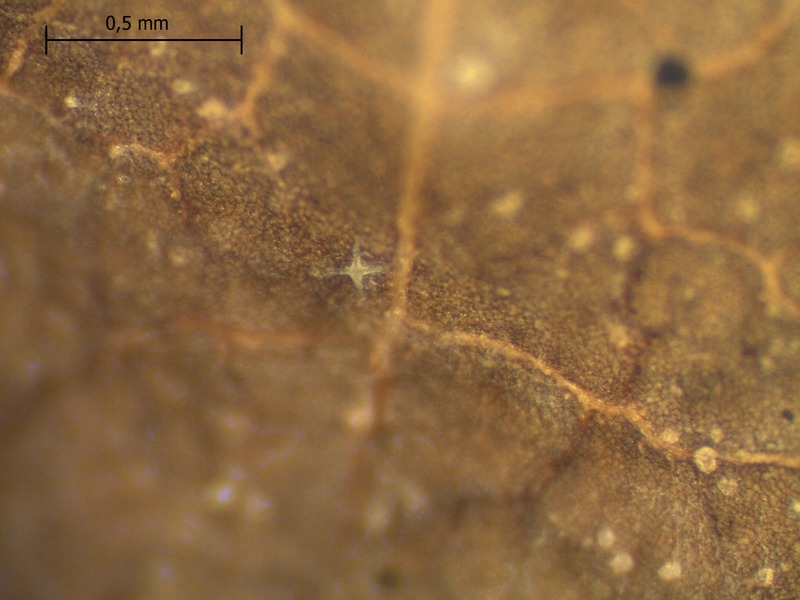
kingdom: Fungi
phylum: Ascomycota
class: Leotiomycetes
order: Helotiales
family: Sclerotiniaceae
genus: Valdensinia
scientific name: Valdensinia heterodoxa
